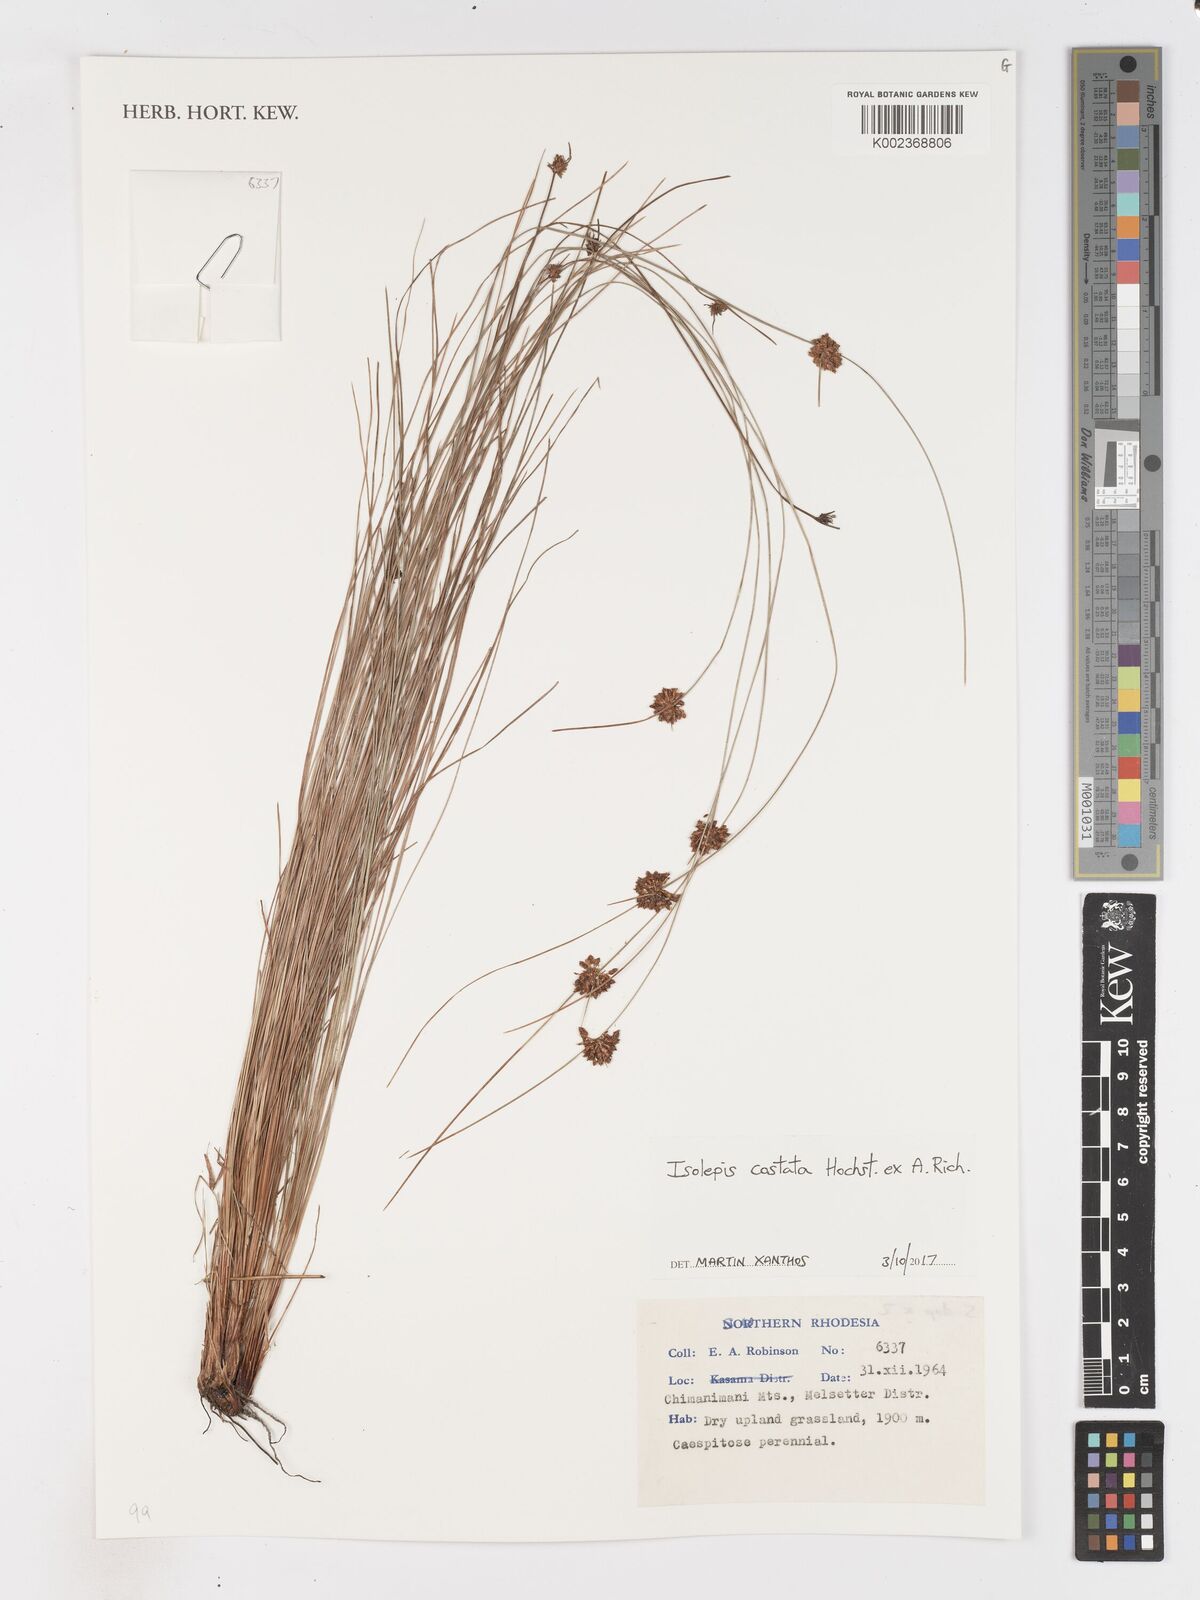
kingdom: Plantae
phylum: Tracheophyta
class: Liliopsida
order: Poales
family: Cyperaceae
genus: Isolepis
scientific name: Isolepis costata
